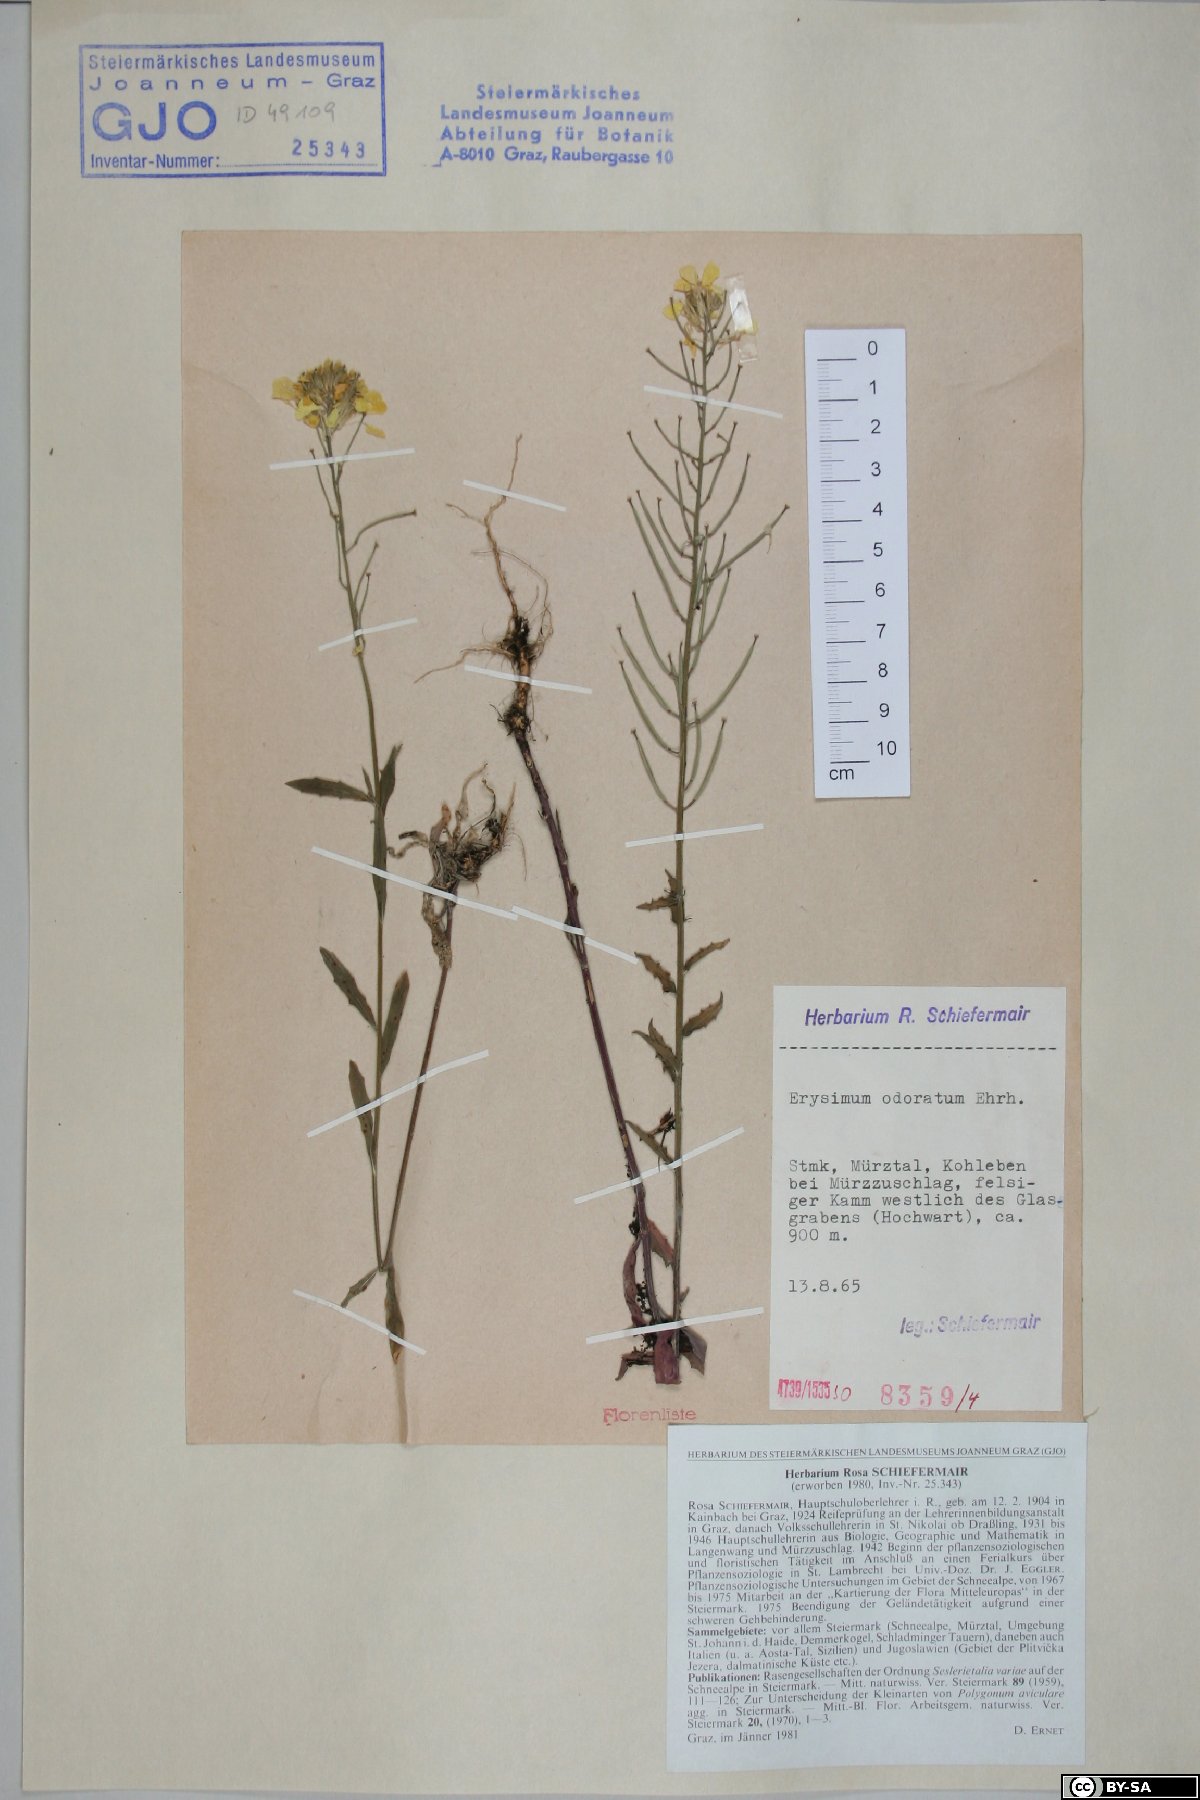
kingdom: Plantae
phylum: Tracheophyta
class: Magnoliopsida
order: Brassicales
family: Brassicaceae
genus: Erysimum
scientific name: Erysimum odoratum
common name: Smelly wallflower
